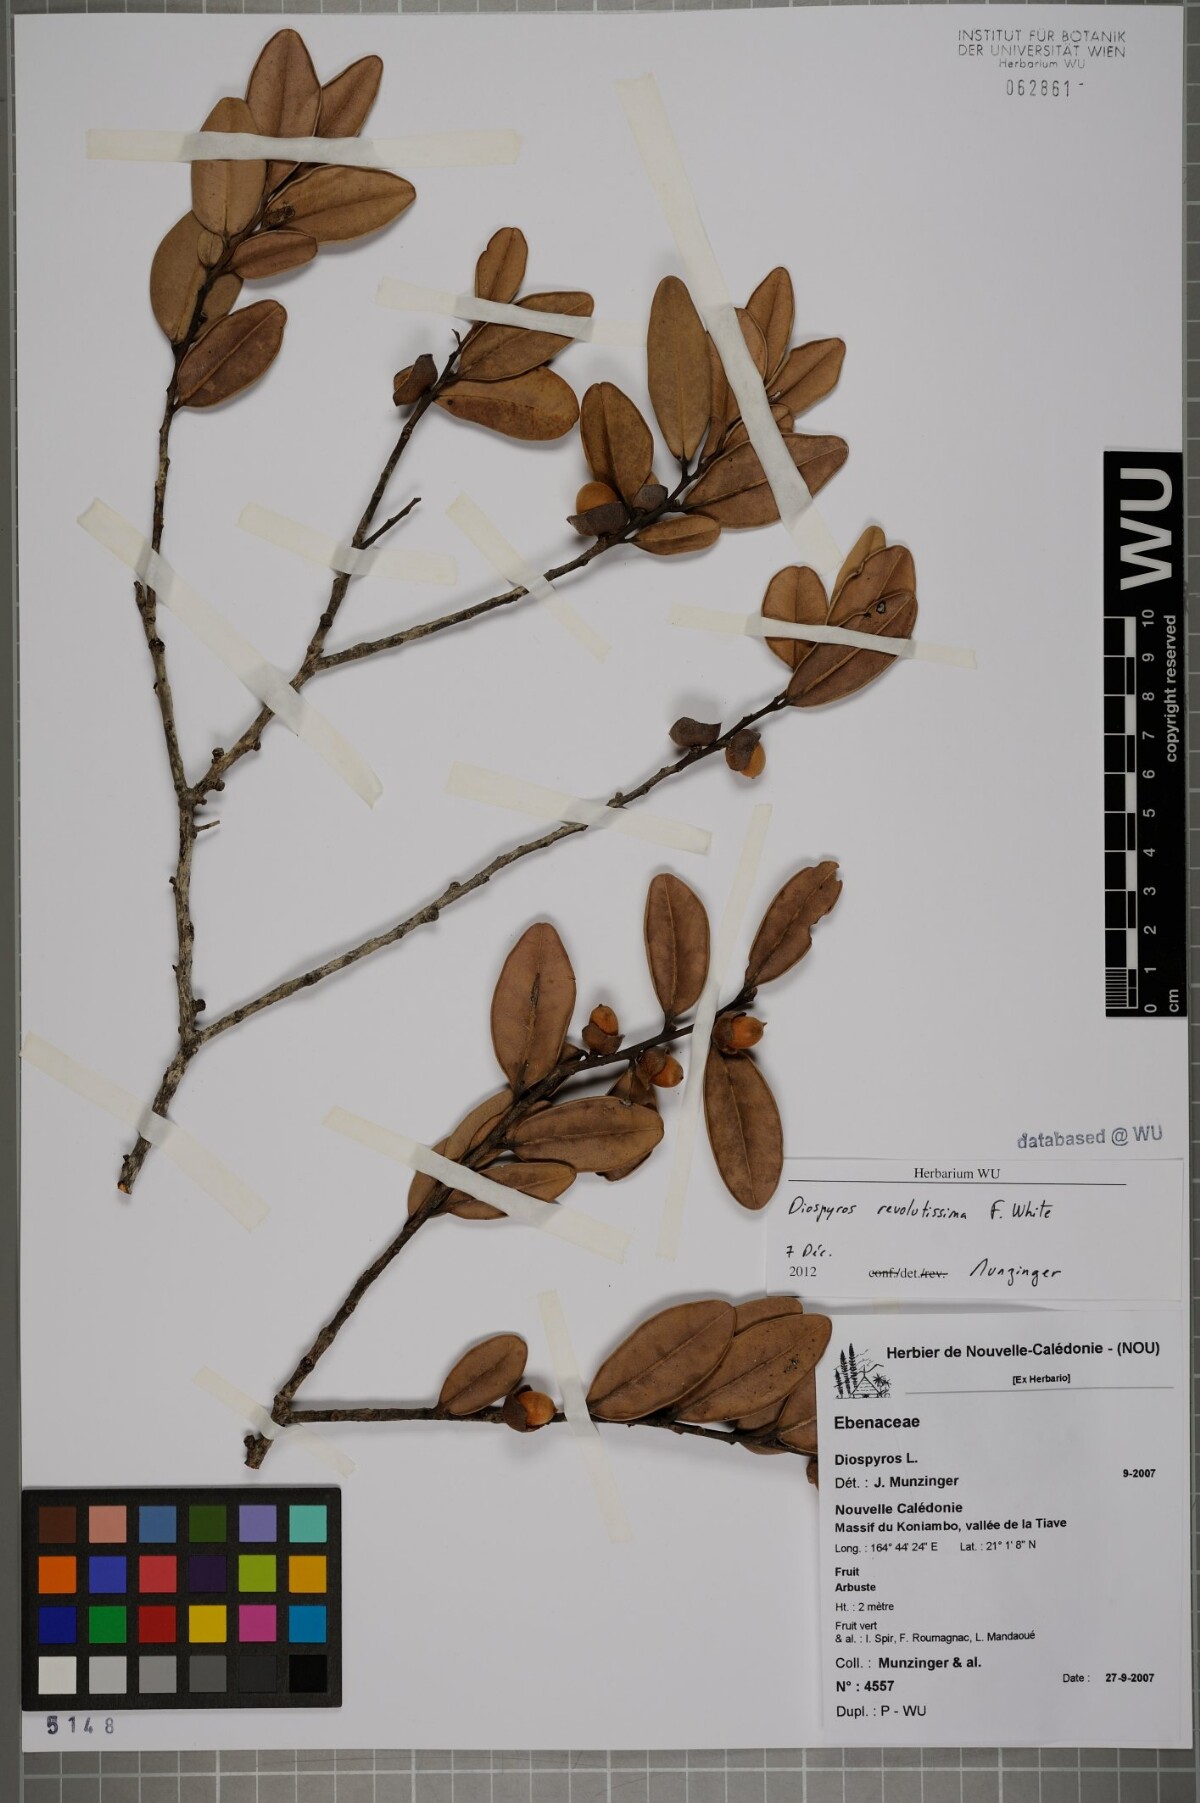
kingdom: Plantae
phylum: Tracheophyta
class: Magnoliopsida
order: Ericales
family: Ebenaceae
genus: Diospyros
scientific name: Diospyros revolutissima
